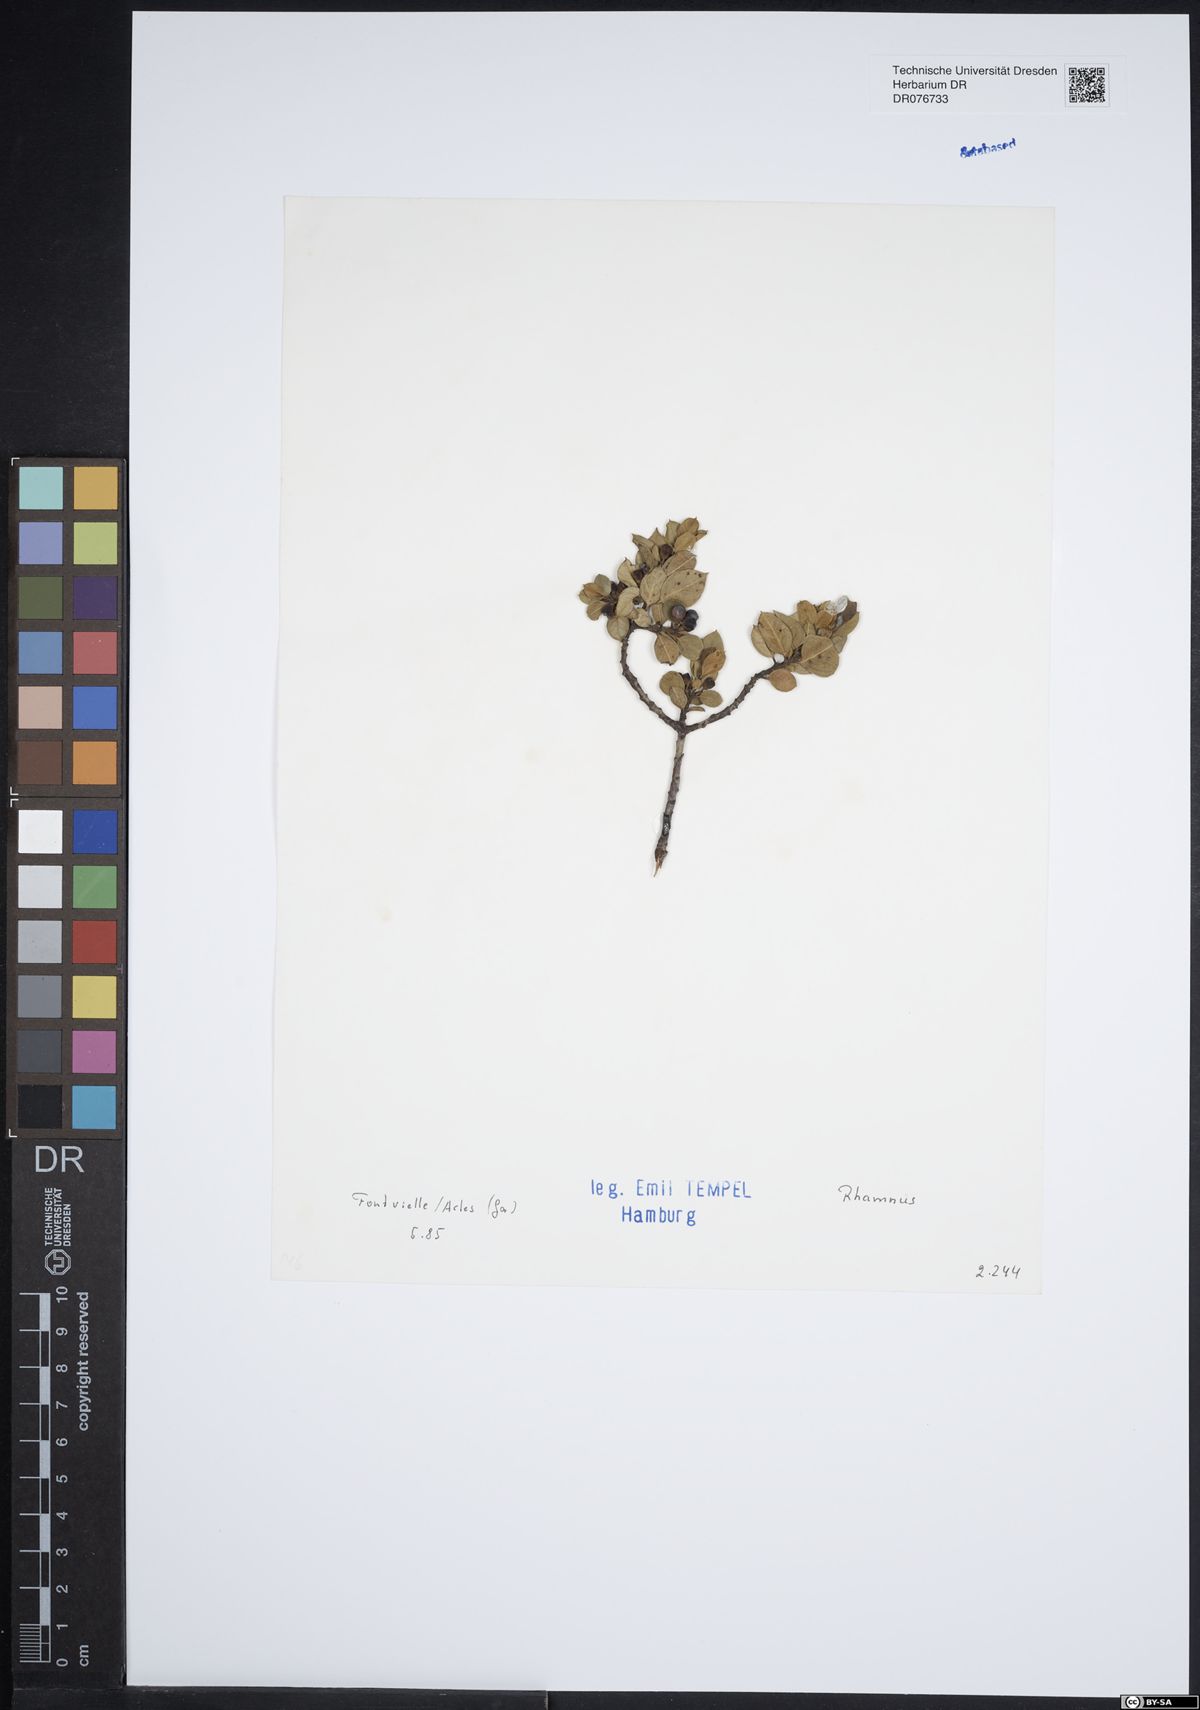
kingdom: Plantae
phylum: Tracheophyta
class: Magnoliopsida
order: Rosales
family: Rhamnaceae
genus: Rhamnus
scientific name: Rhamnus
